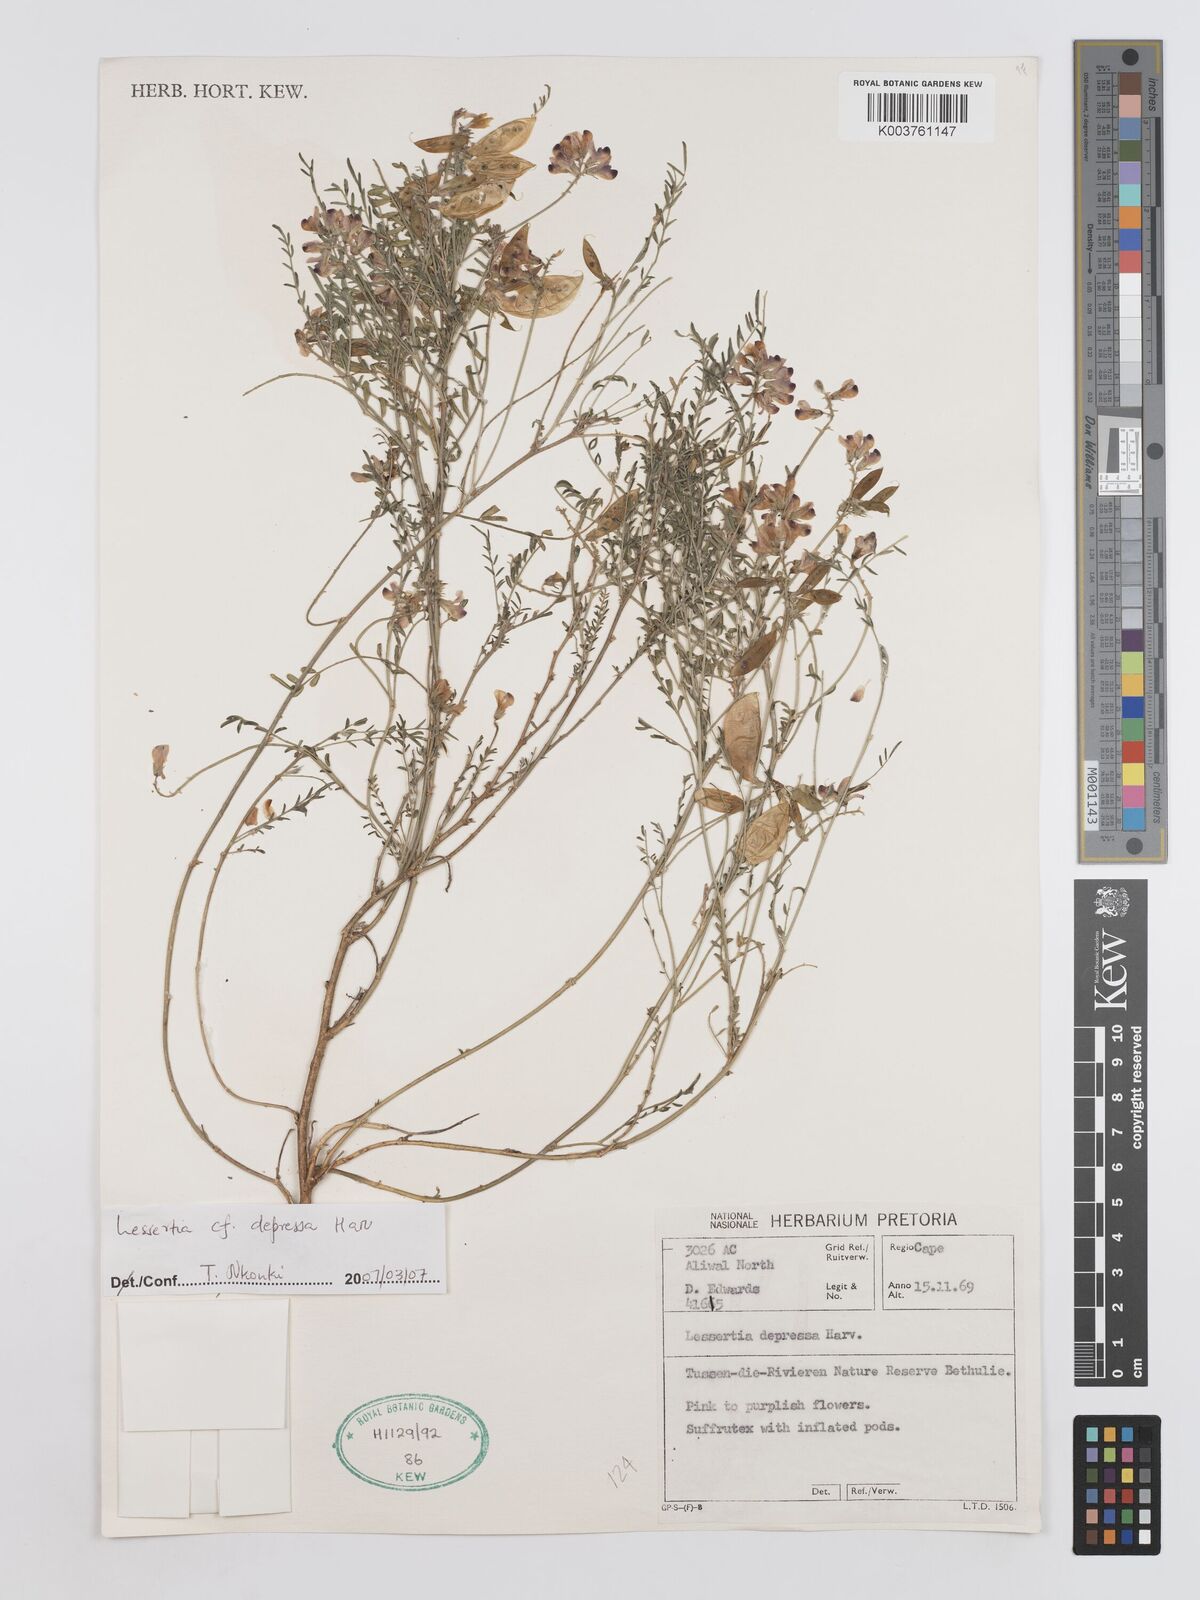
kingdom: Plantae
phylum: Tracheophyta
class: Magnoliopsida
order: Fabales
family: Fabaceae
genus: Lessertia
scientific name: Lessertia depressa
